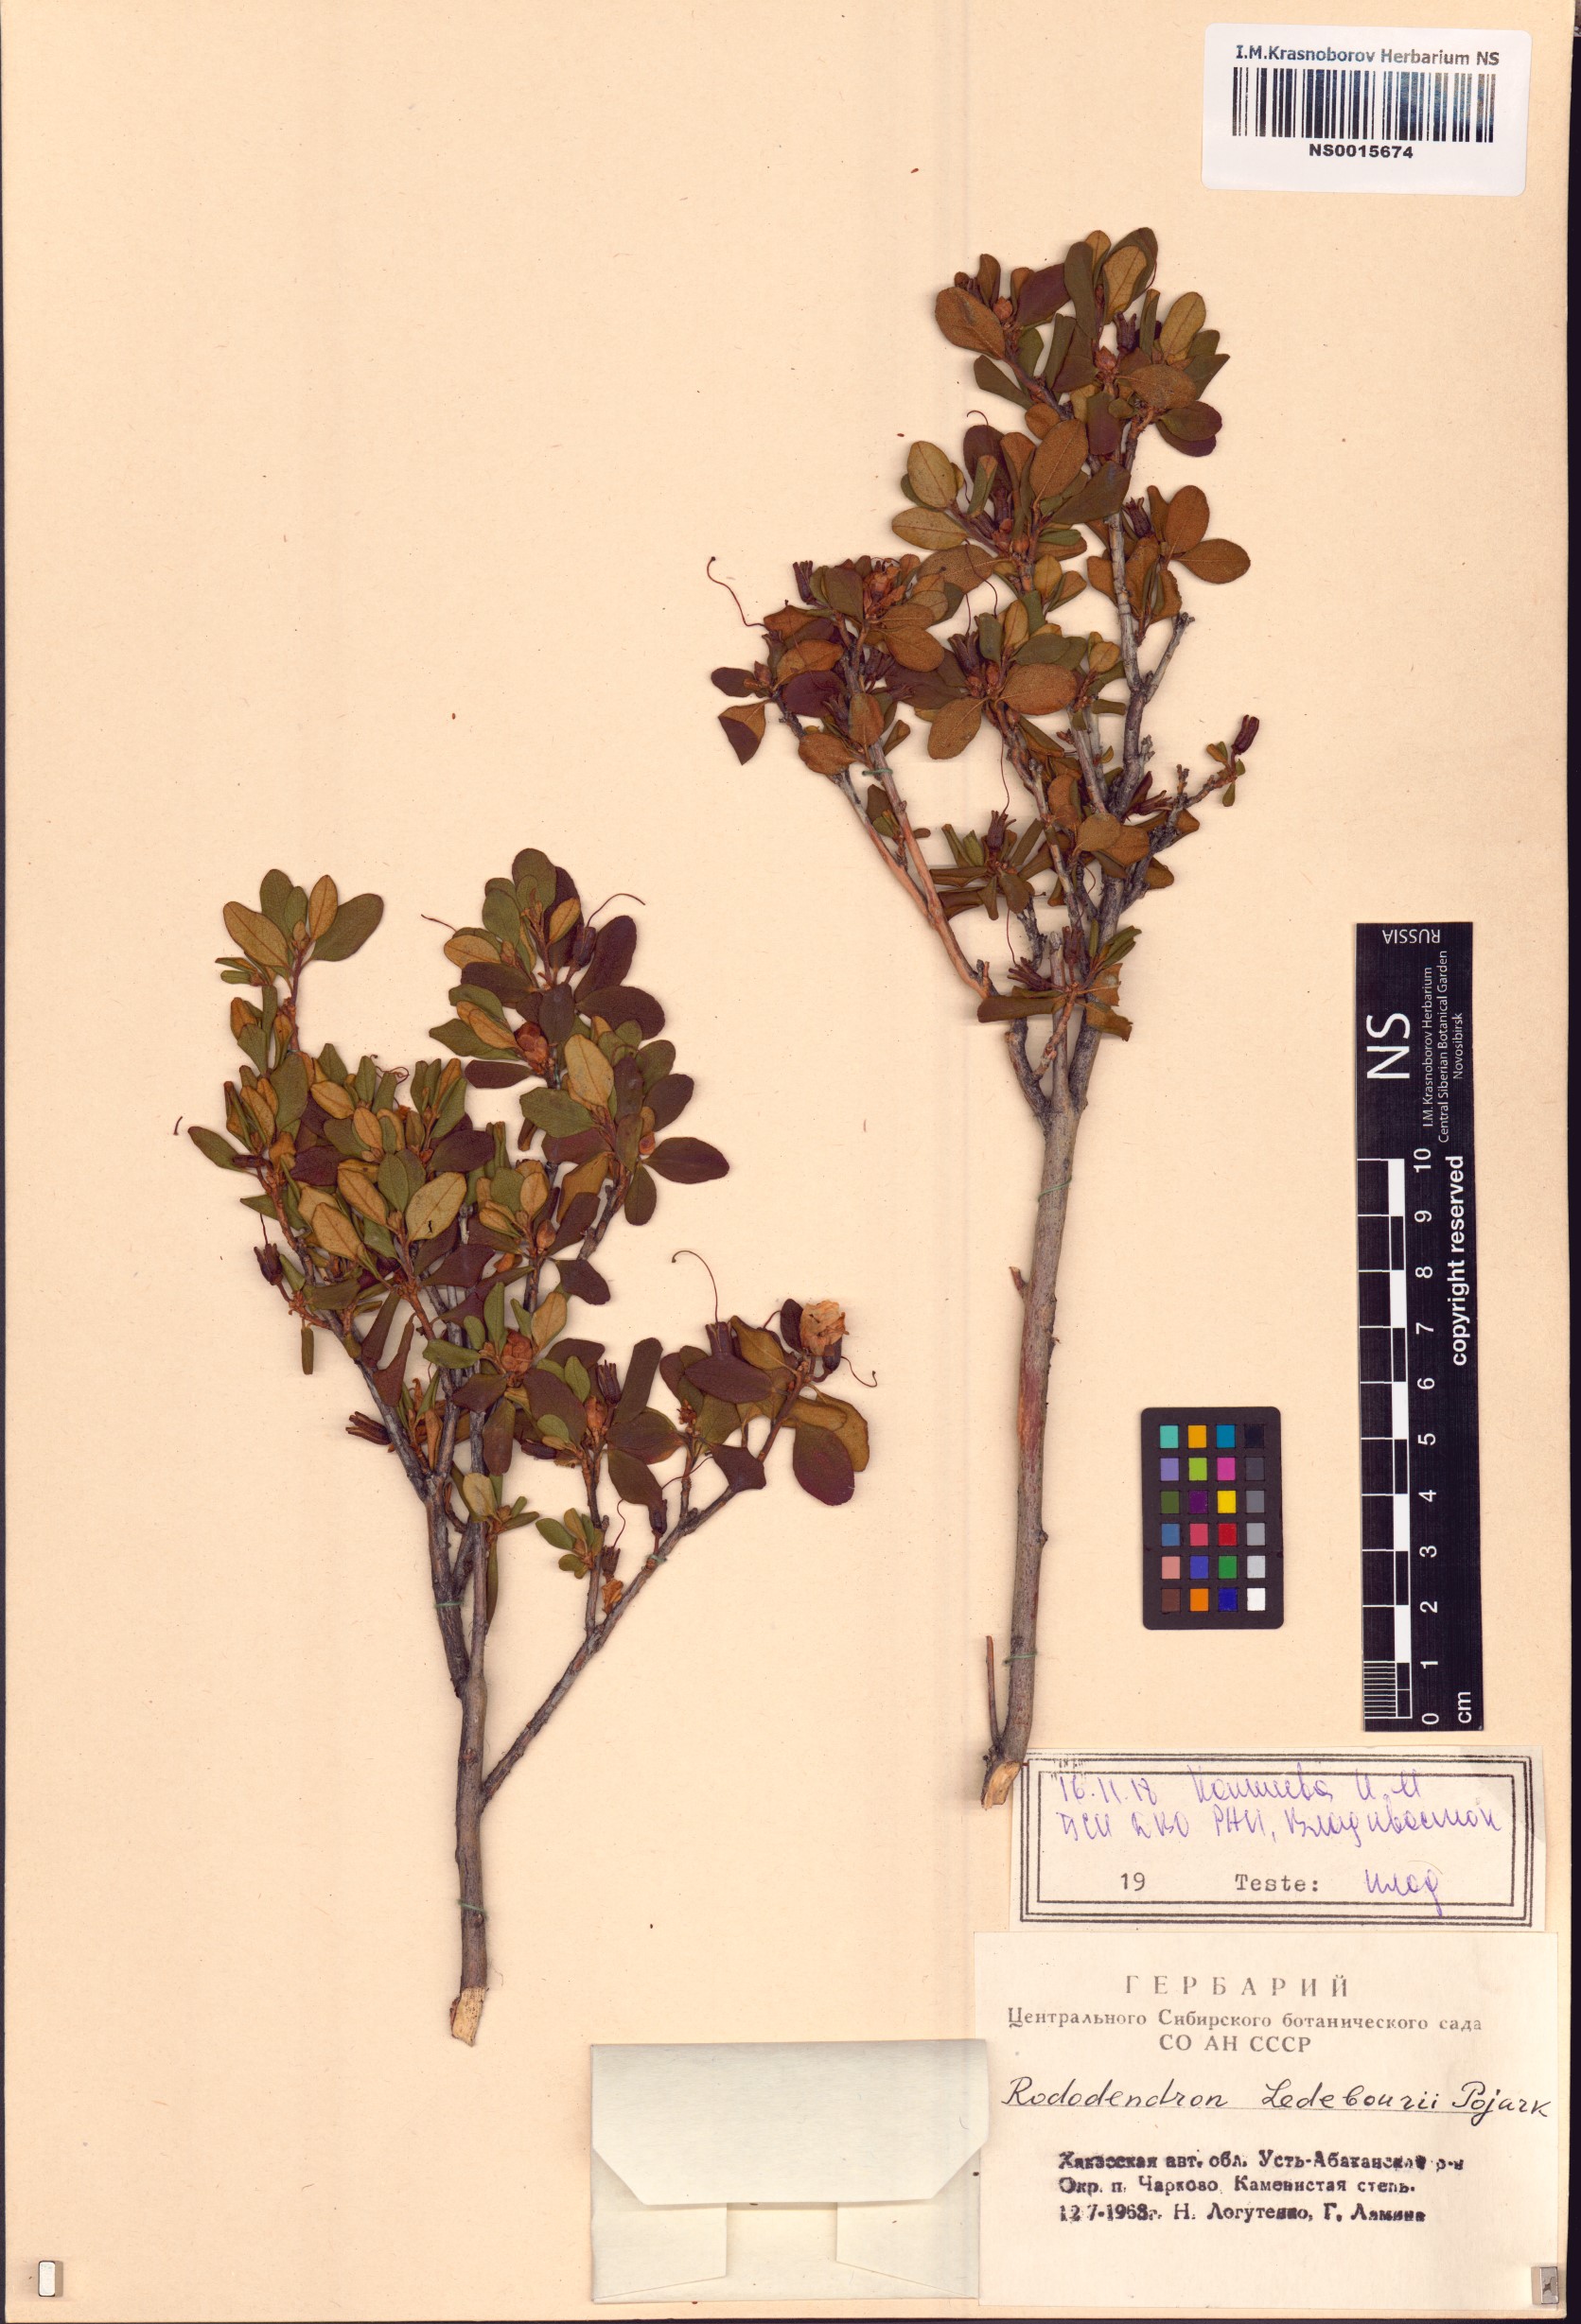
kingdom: Plantae
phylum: Tracheophyta
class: Magnoliopsida
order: Ericales
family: Ericaceae
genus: Rhododendron
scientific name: Rhododendron dauricum
